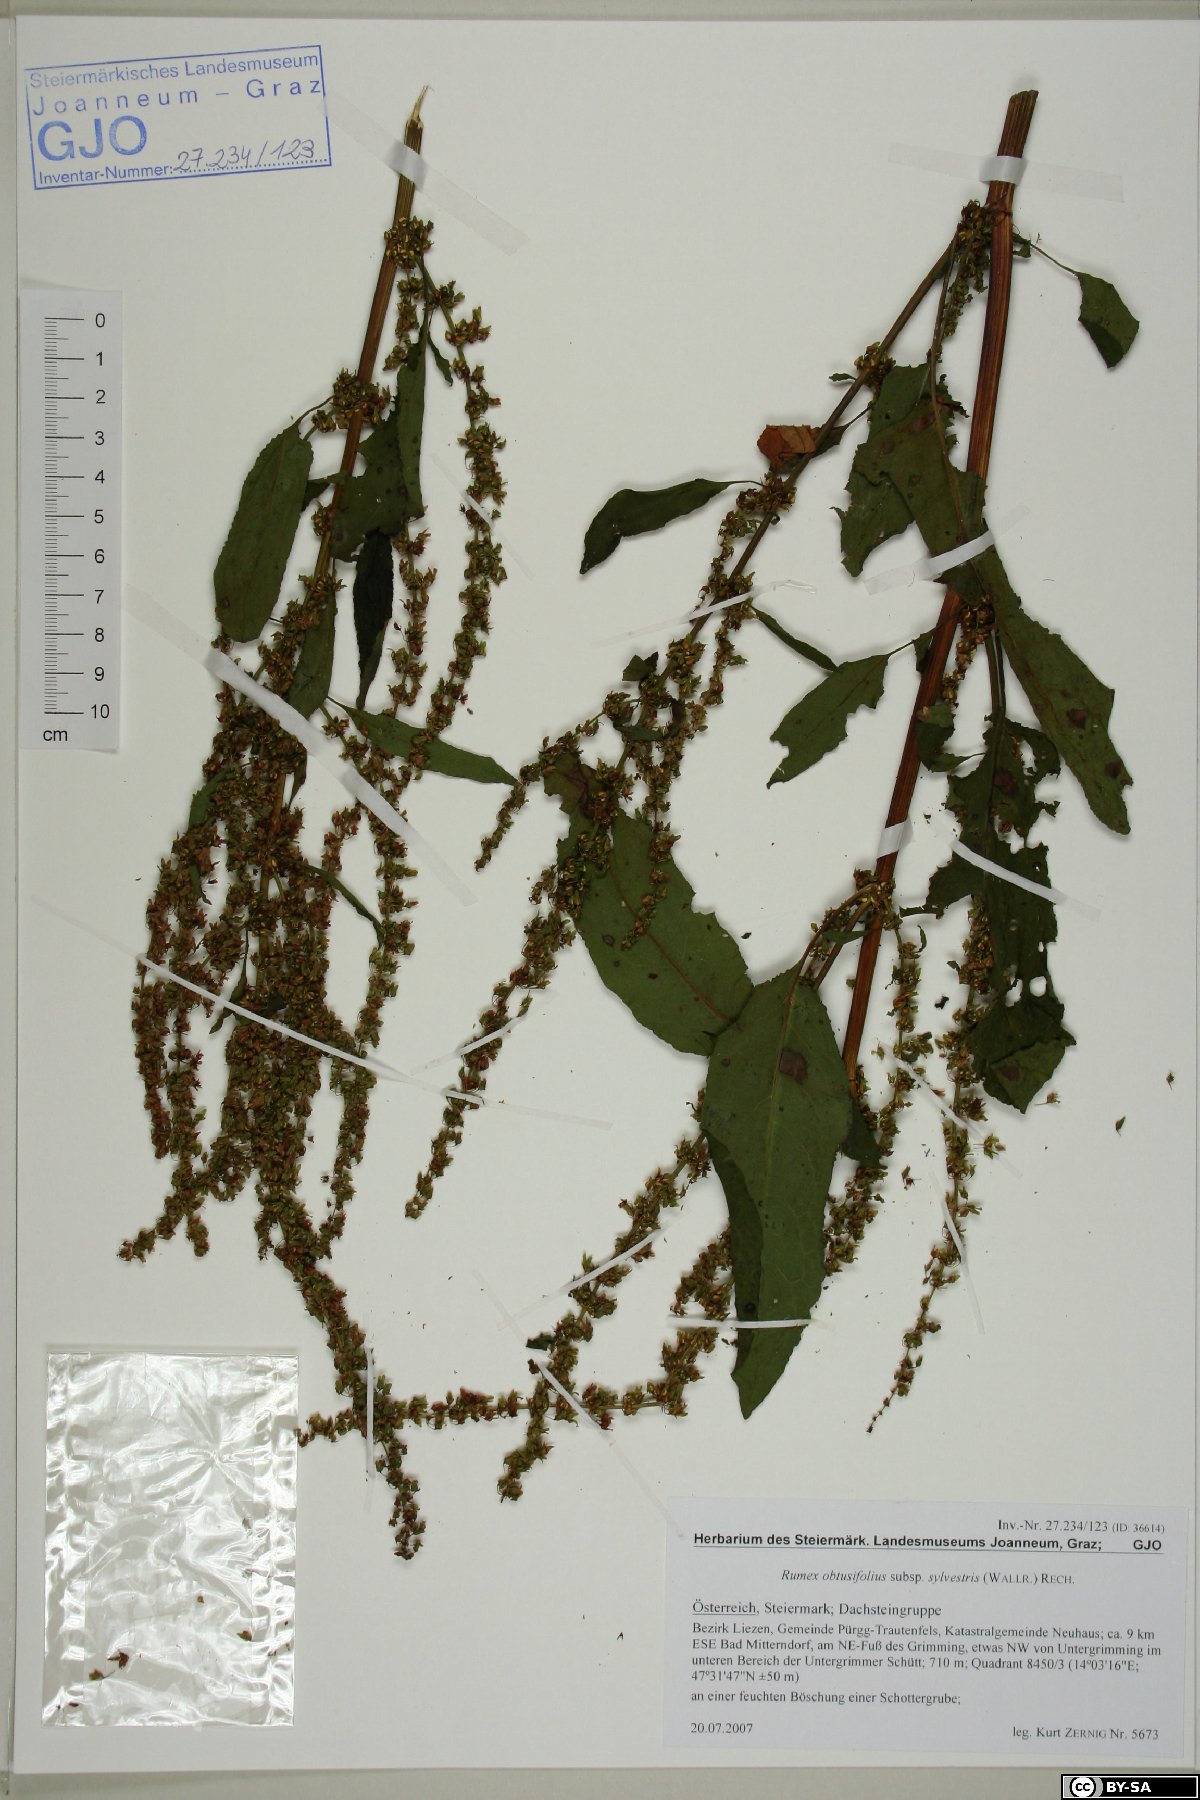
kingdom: Plantae
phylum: Tracheophyta
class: Magnoliopsida
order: Caryophyllales
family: Polygonaceae
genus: Rumex
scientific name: Rumex obtusifolius
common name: Bitter dock
